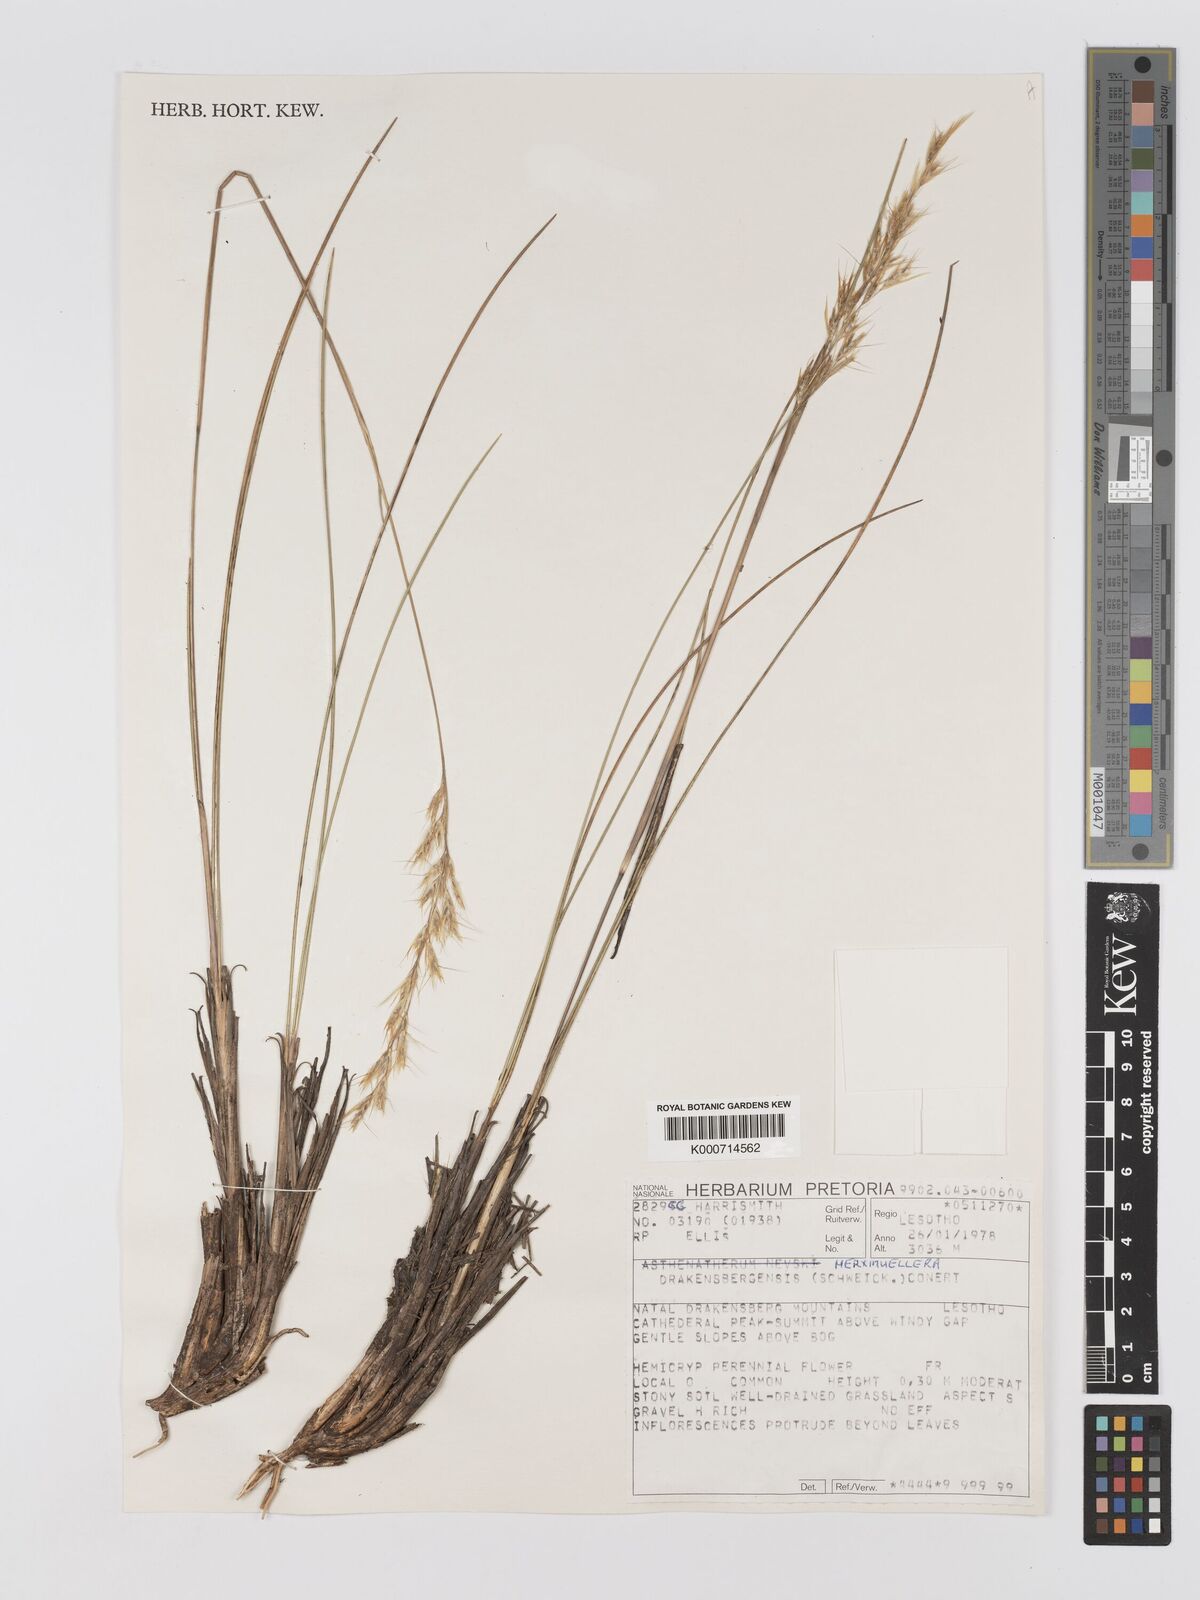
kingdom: Plantae
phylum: Tracheophyta
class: Liliopsida
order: Poales
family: Poaceae
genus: Rytidosperma
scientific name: Rytidosperma
